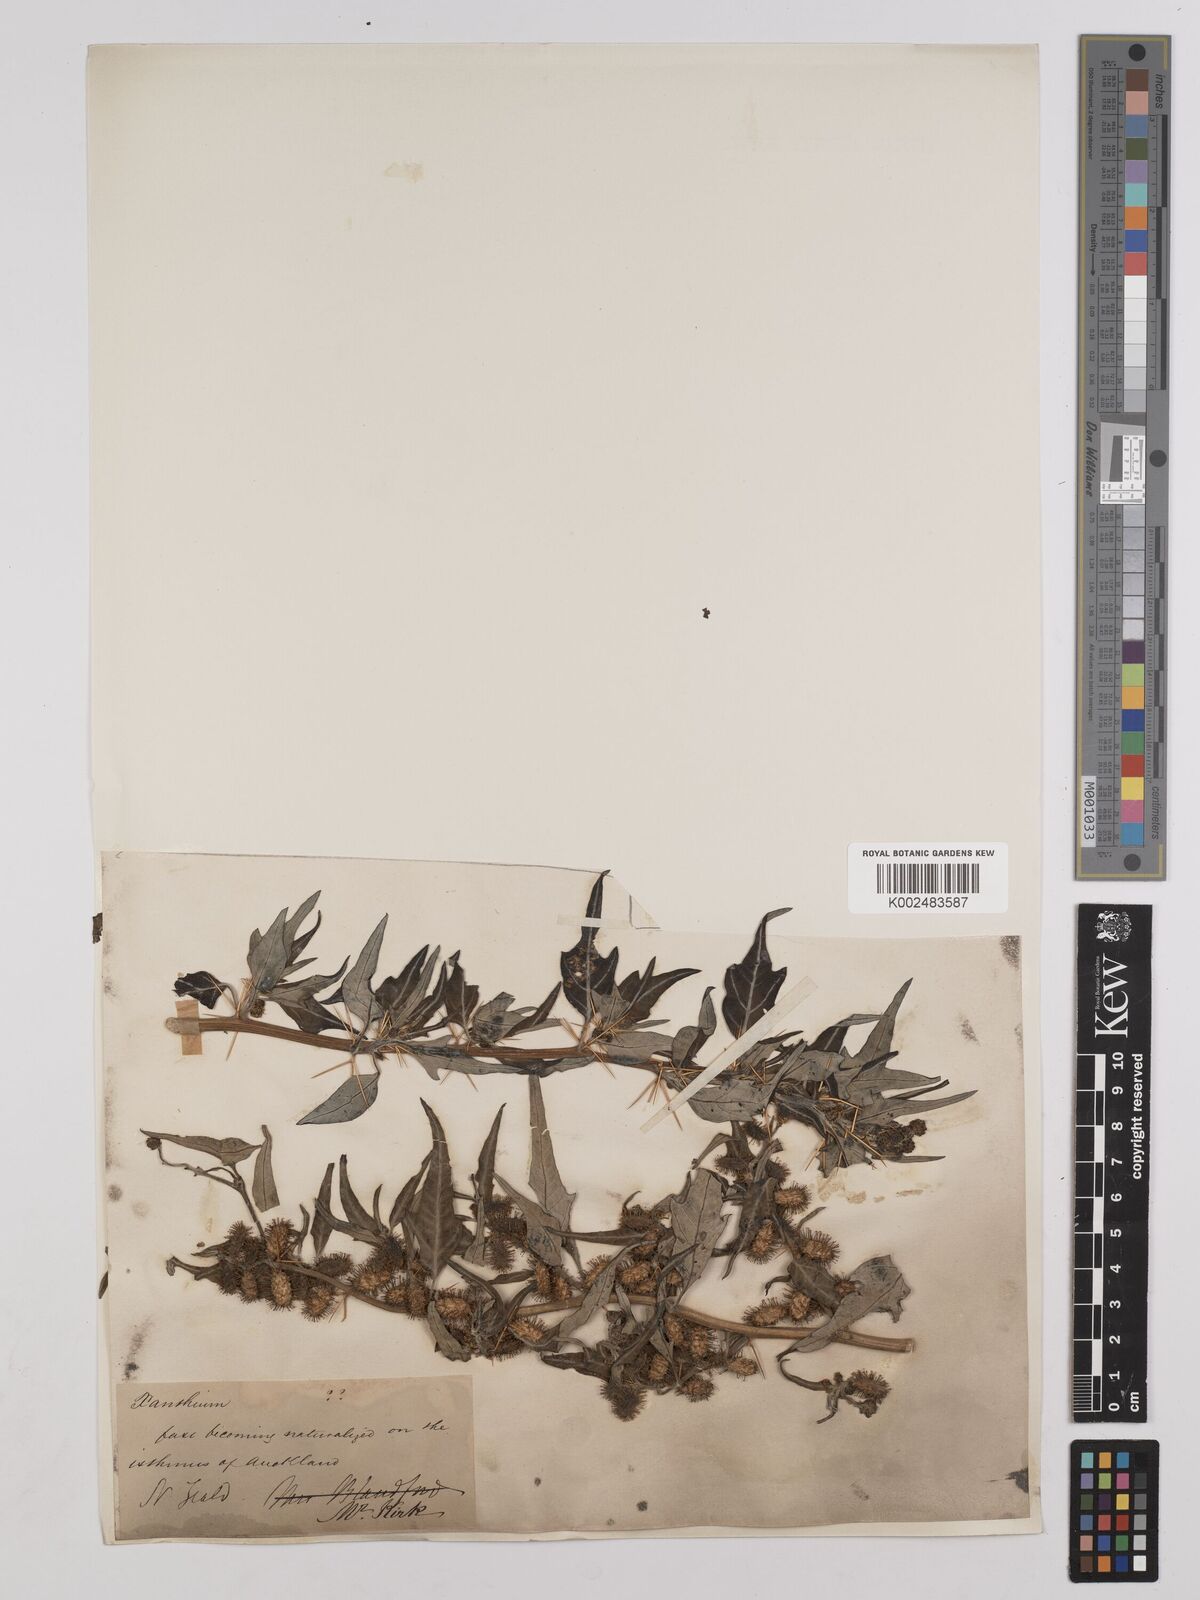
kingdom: Plantae
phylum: Tracheophyta
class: Magnoliopsida
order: Asterales
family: Asteraceae
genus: Xanthium
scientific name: Xanthium spinosum
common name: Spiny cocklebur
